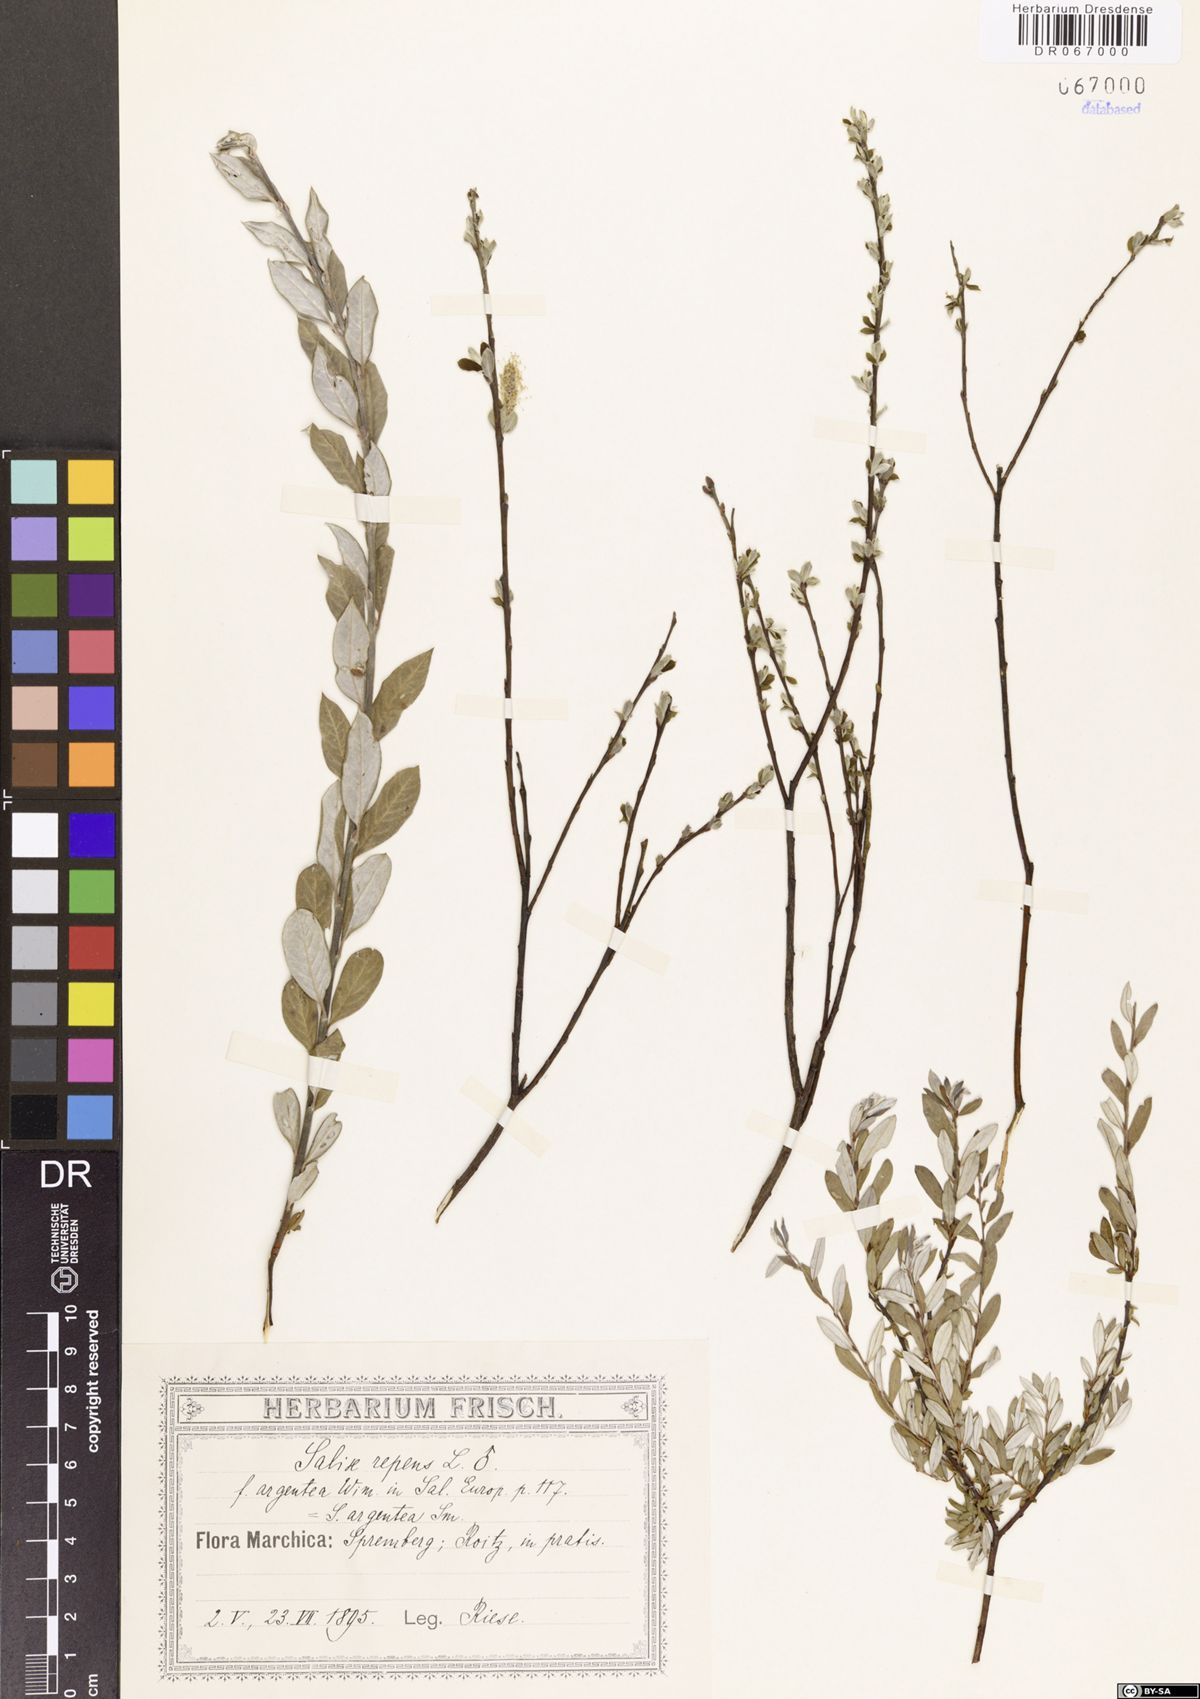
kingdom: Plantae
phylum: Tracheophyta
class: Magnoliopsida
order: Malpighiales
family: Salicaceae
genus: Salix
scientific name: Salix repens
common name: Creeping willow
